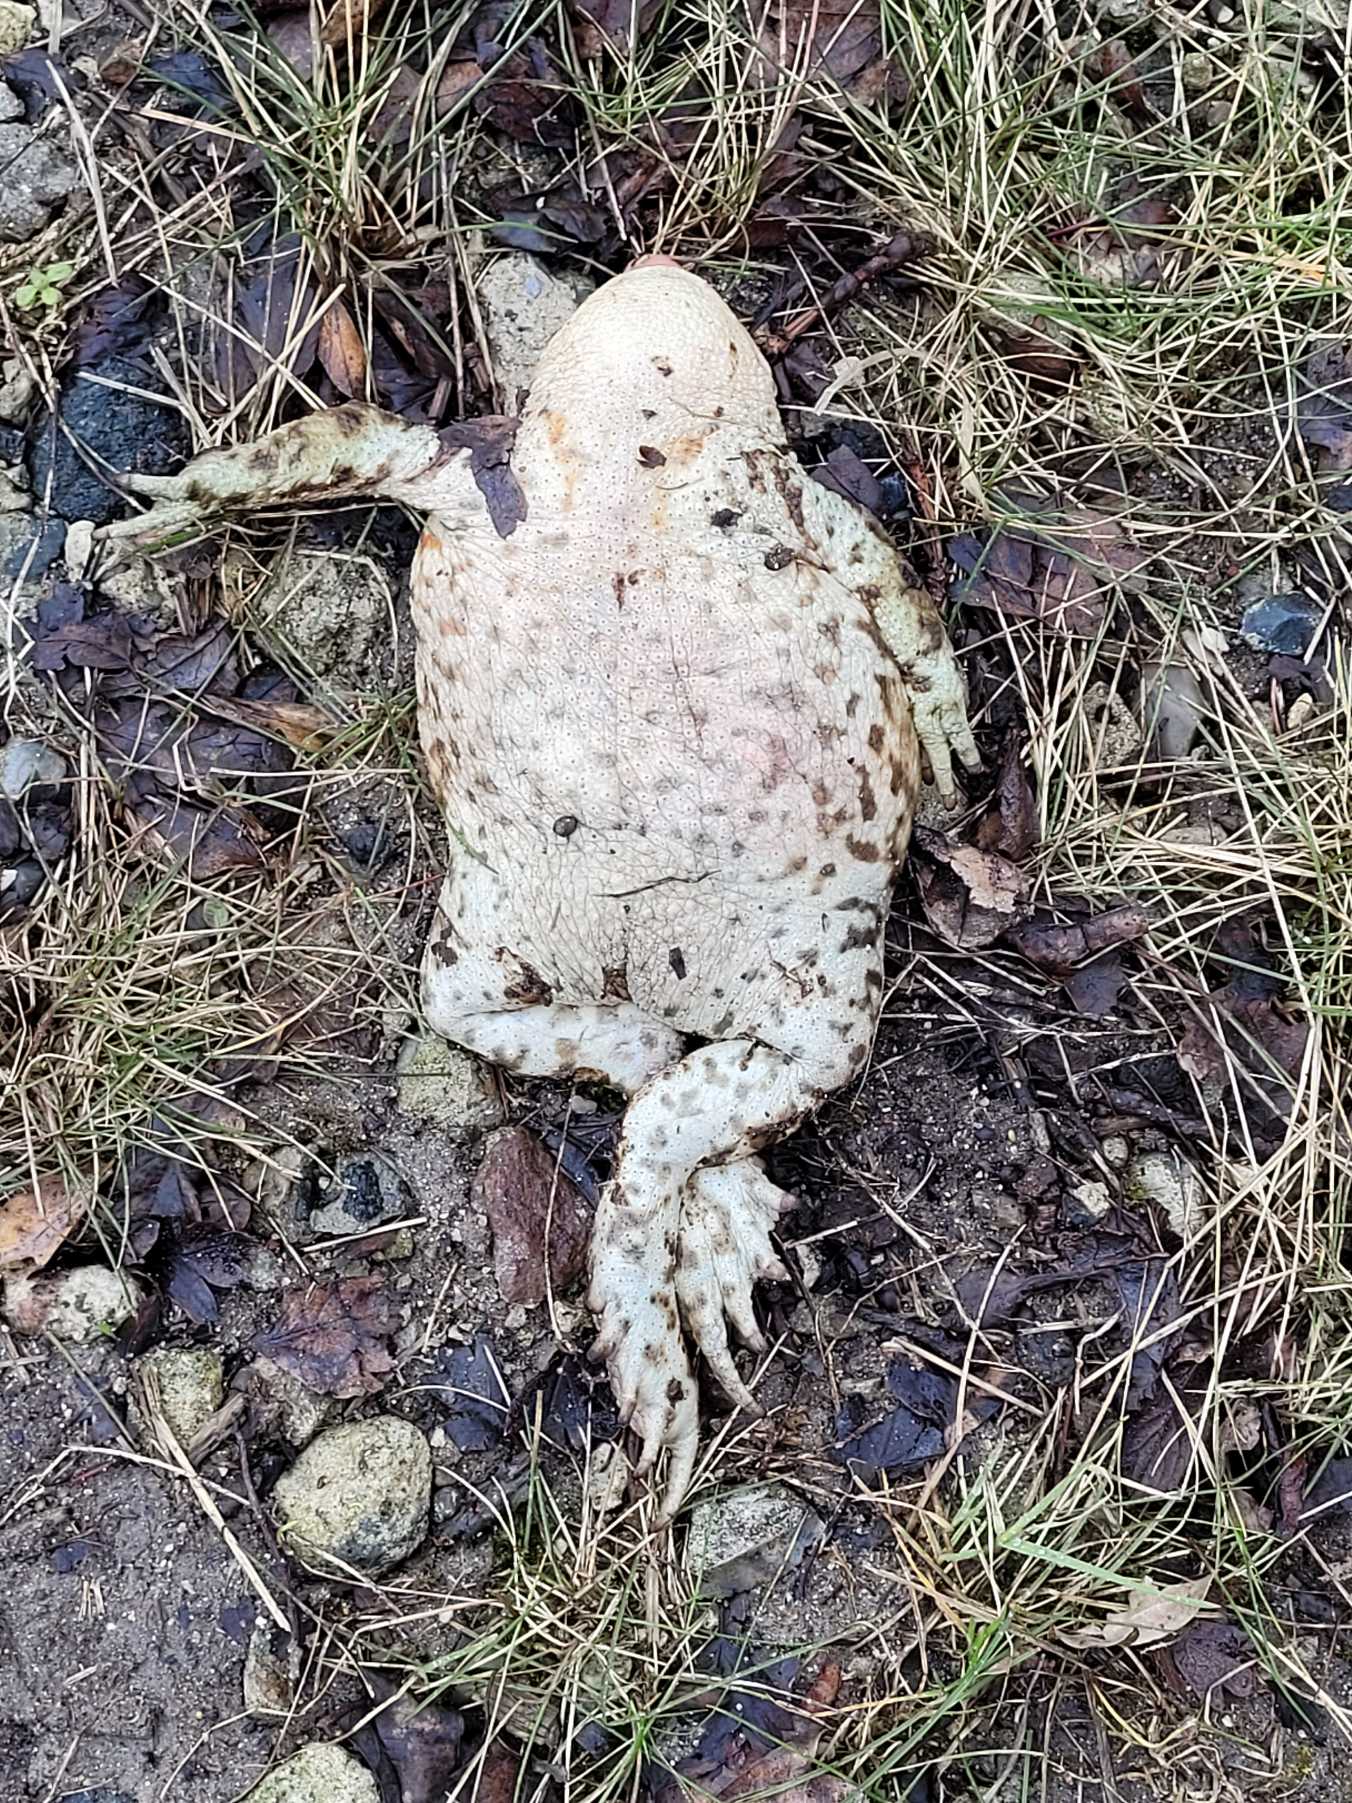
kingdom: Animalia
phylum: Chordata
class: Amphibia
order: Anura
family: Bufonidae
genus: Bufo
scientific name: Bufo bufo
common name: Skrubtudse
